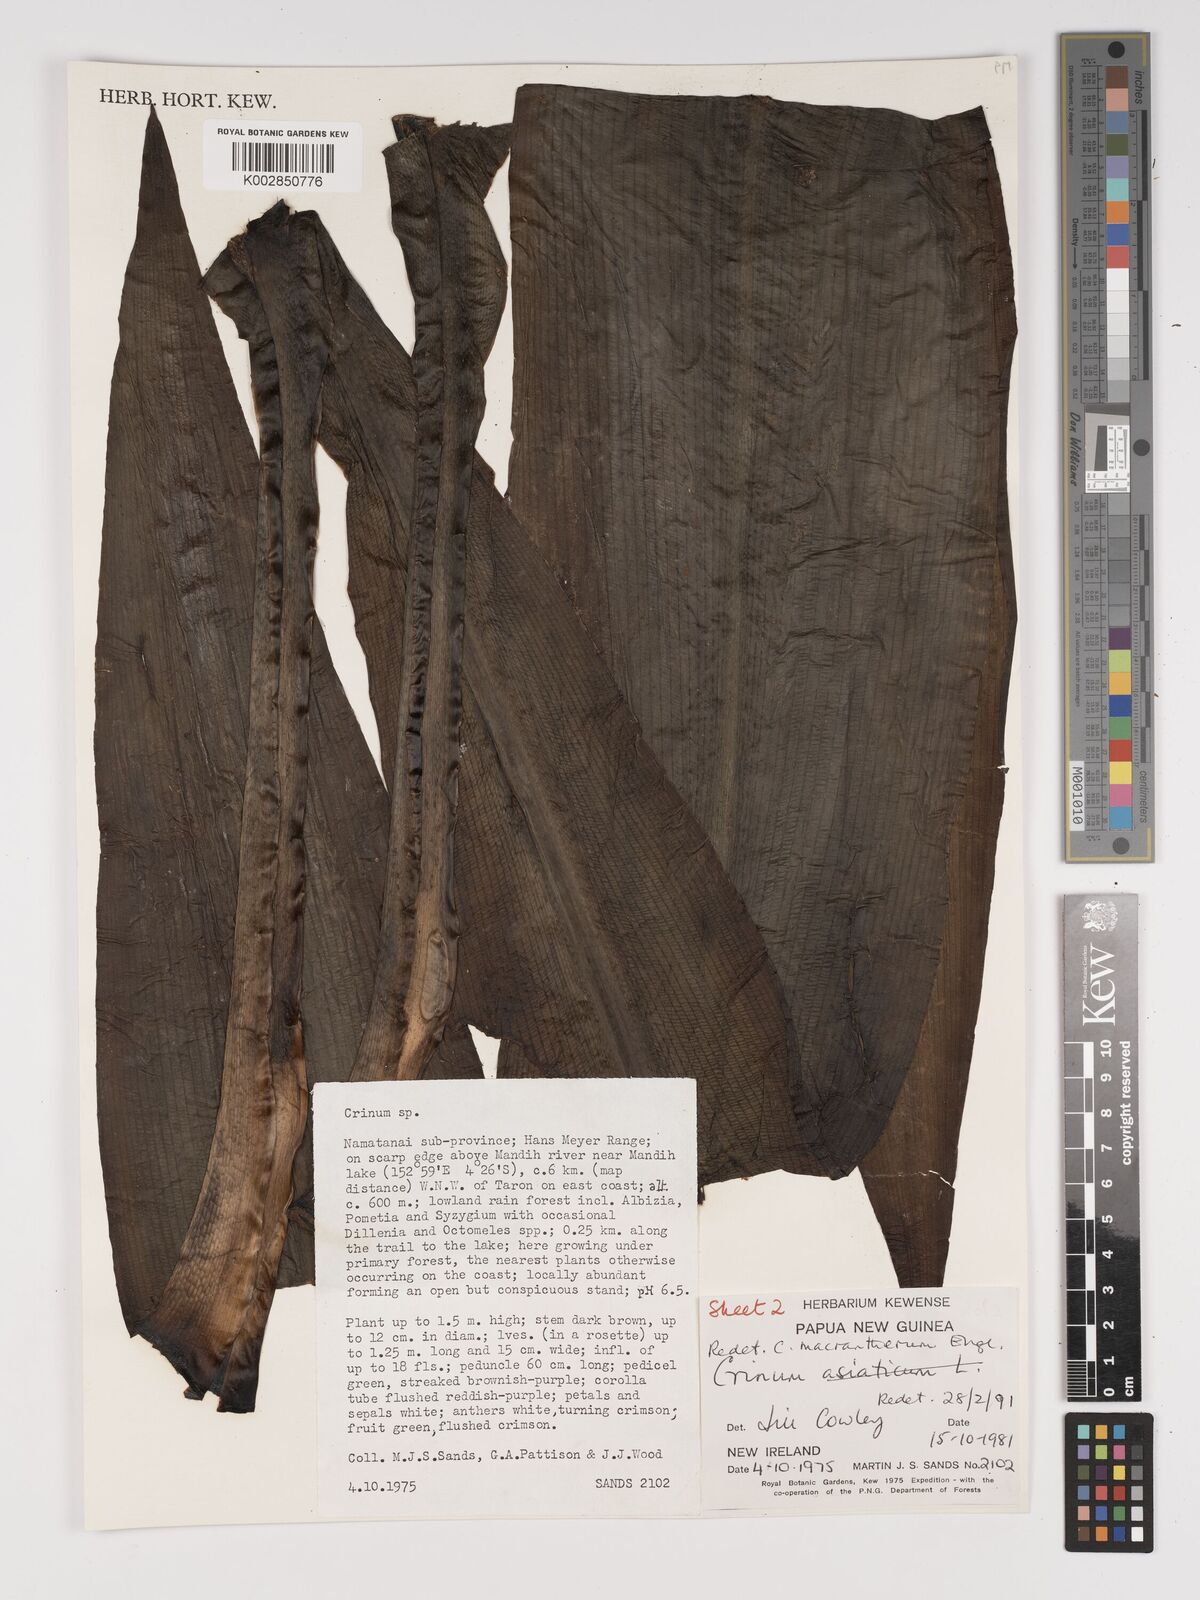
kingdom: Plantae
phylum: Tracheophyta
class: Liliopsida
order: Asparagales
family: Amaryllidaceae
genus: Crinum
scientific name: Crinum asiaticum
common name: Poisonbulb
